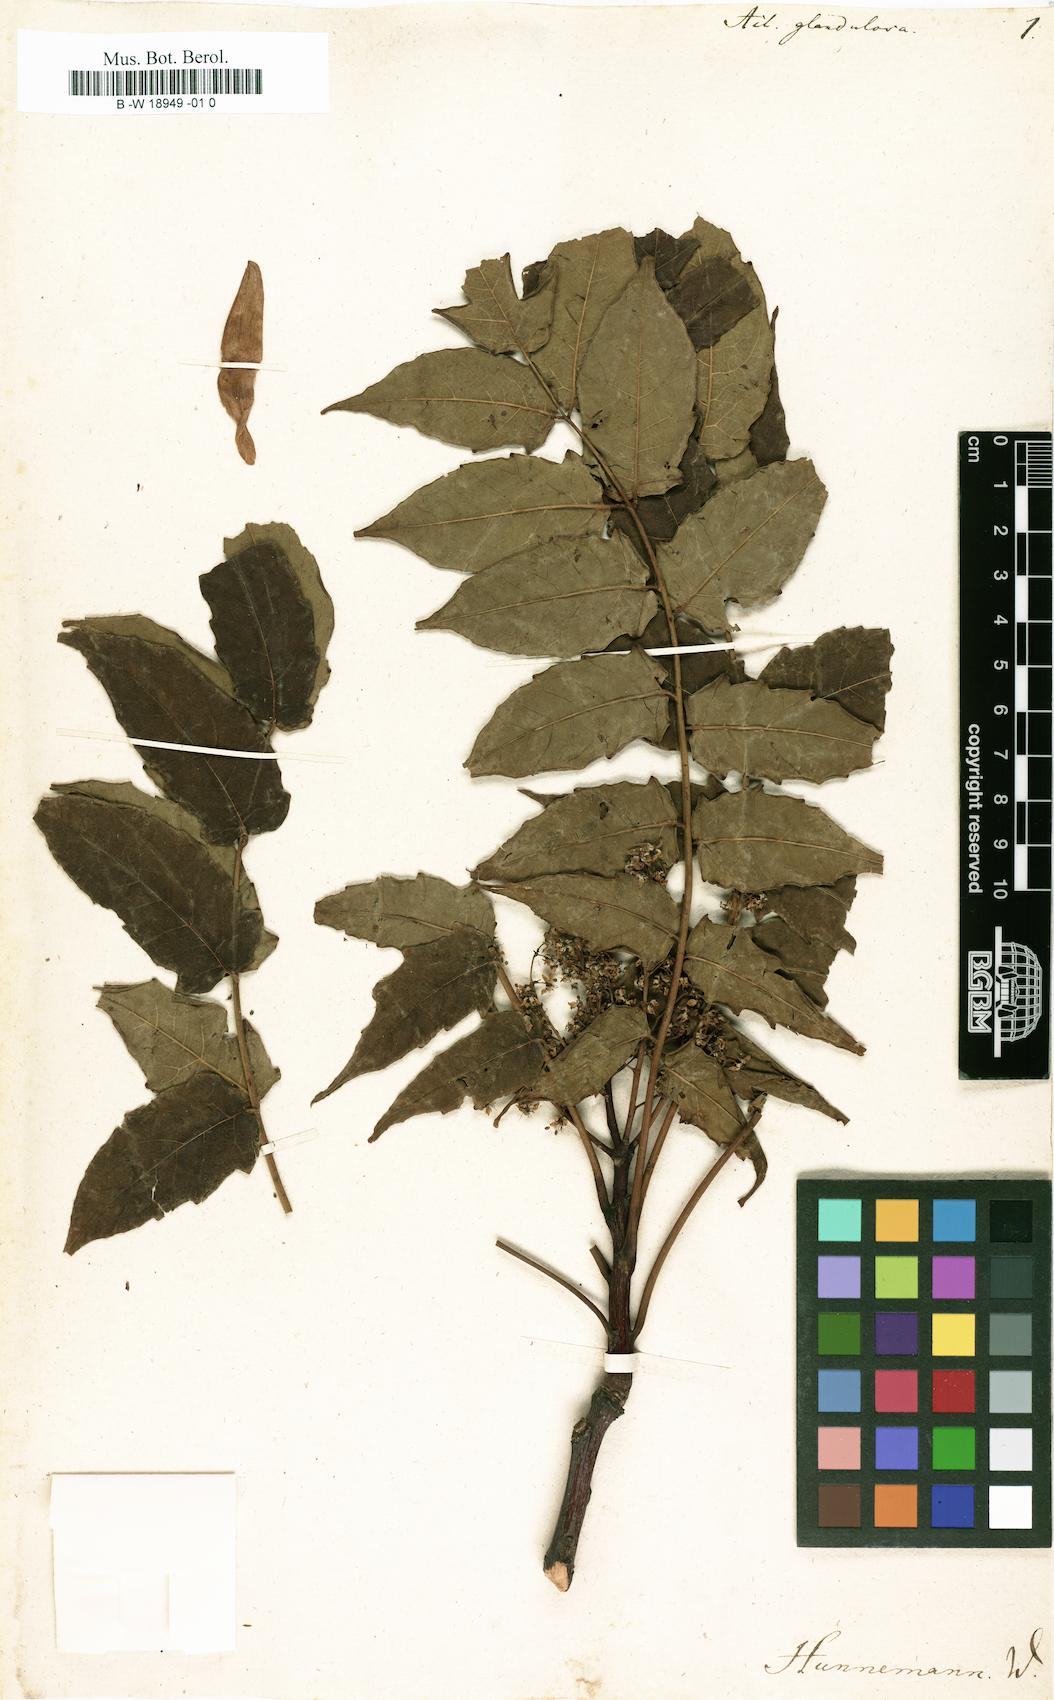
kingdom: Plantae
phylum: Tracheophyta
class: Magnoliopsida
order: Sapindales
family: Simaroubaceae
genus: Ailanthus
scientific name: Ailanthus altissima
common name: Tree-of-heaven
